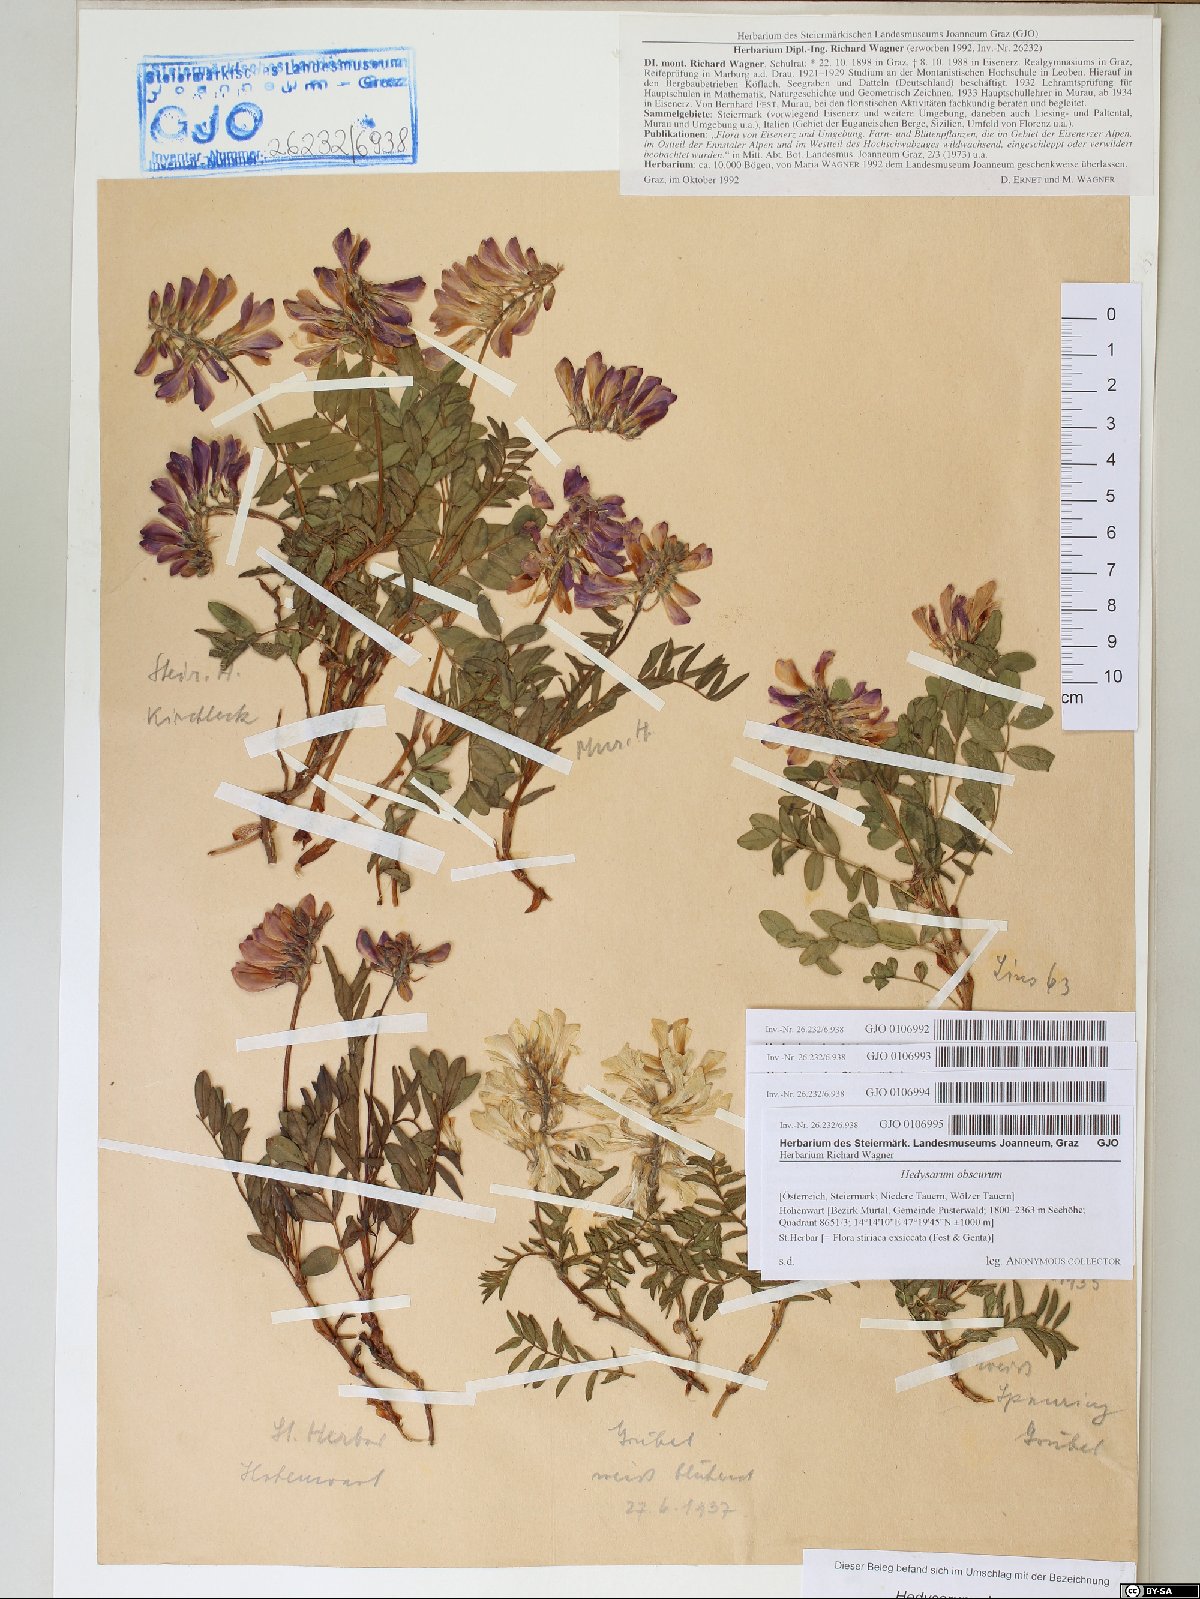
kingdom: Plantae
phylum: Tracheophyta
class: Magnoliopsida
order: Fabales
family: Fabaceae
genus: Hedysarum
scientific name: Hedysarum hedysaroides
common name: Alpine french-honeysuckle
